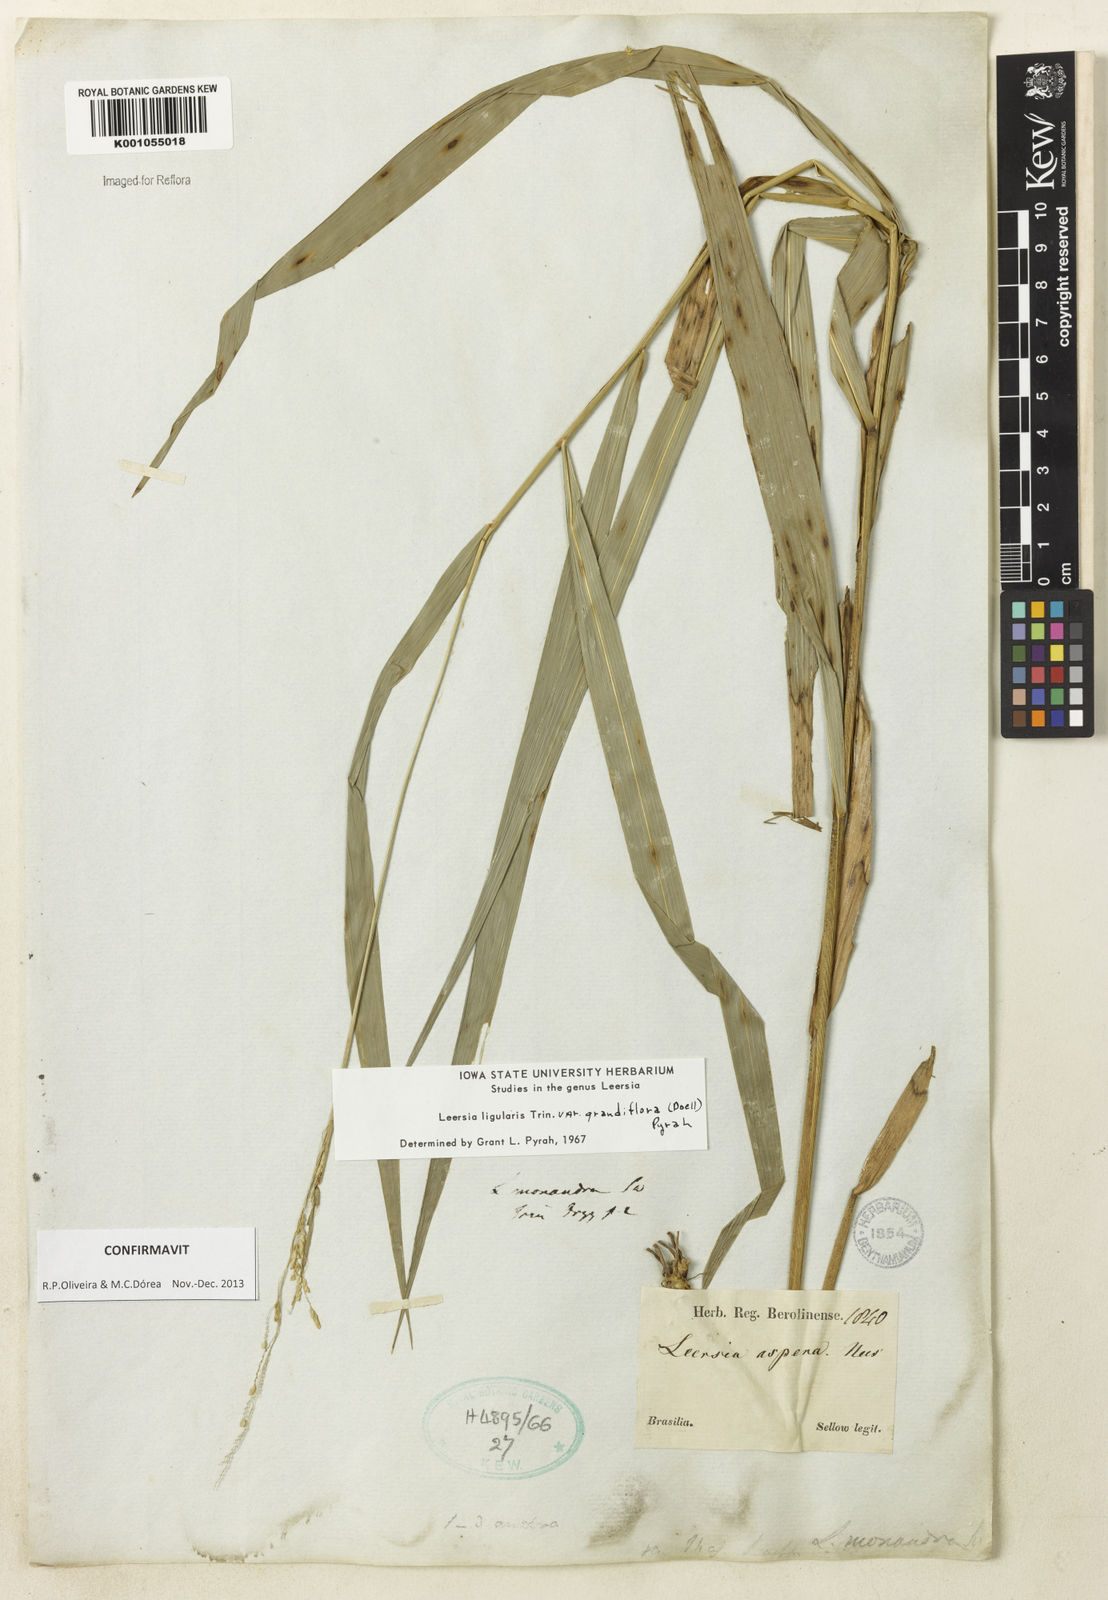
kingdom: Plantae
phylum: Tracheophyta
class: Liliopsida
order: Poales
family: Poaceae
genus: Leersia
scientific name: Leersia ligularis
